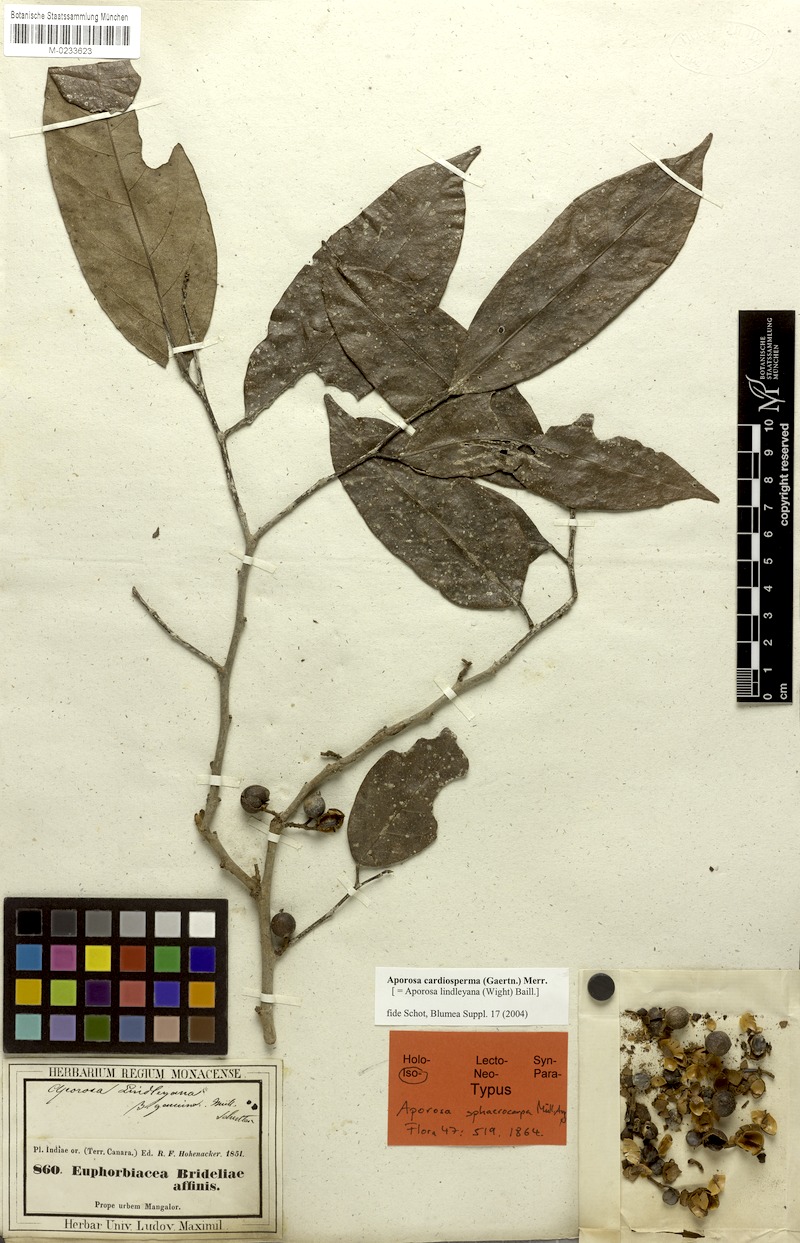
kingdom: Plantae
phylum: Tracheophyta
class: Magnoliopsida
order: Malpighiales
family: Phyllanthaceae
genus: Aporosa
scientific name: Aporosa cardiosperma
